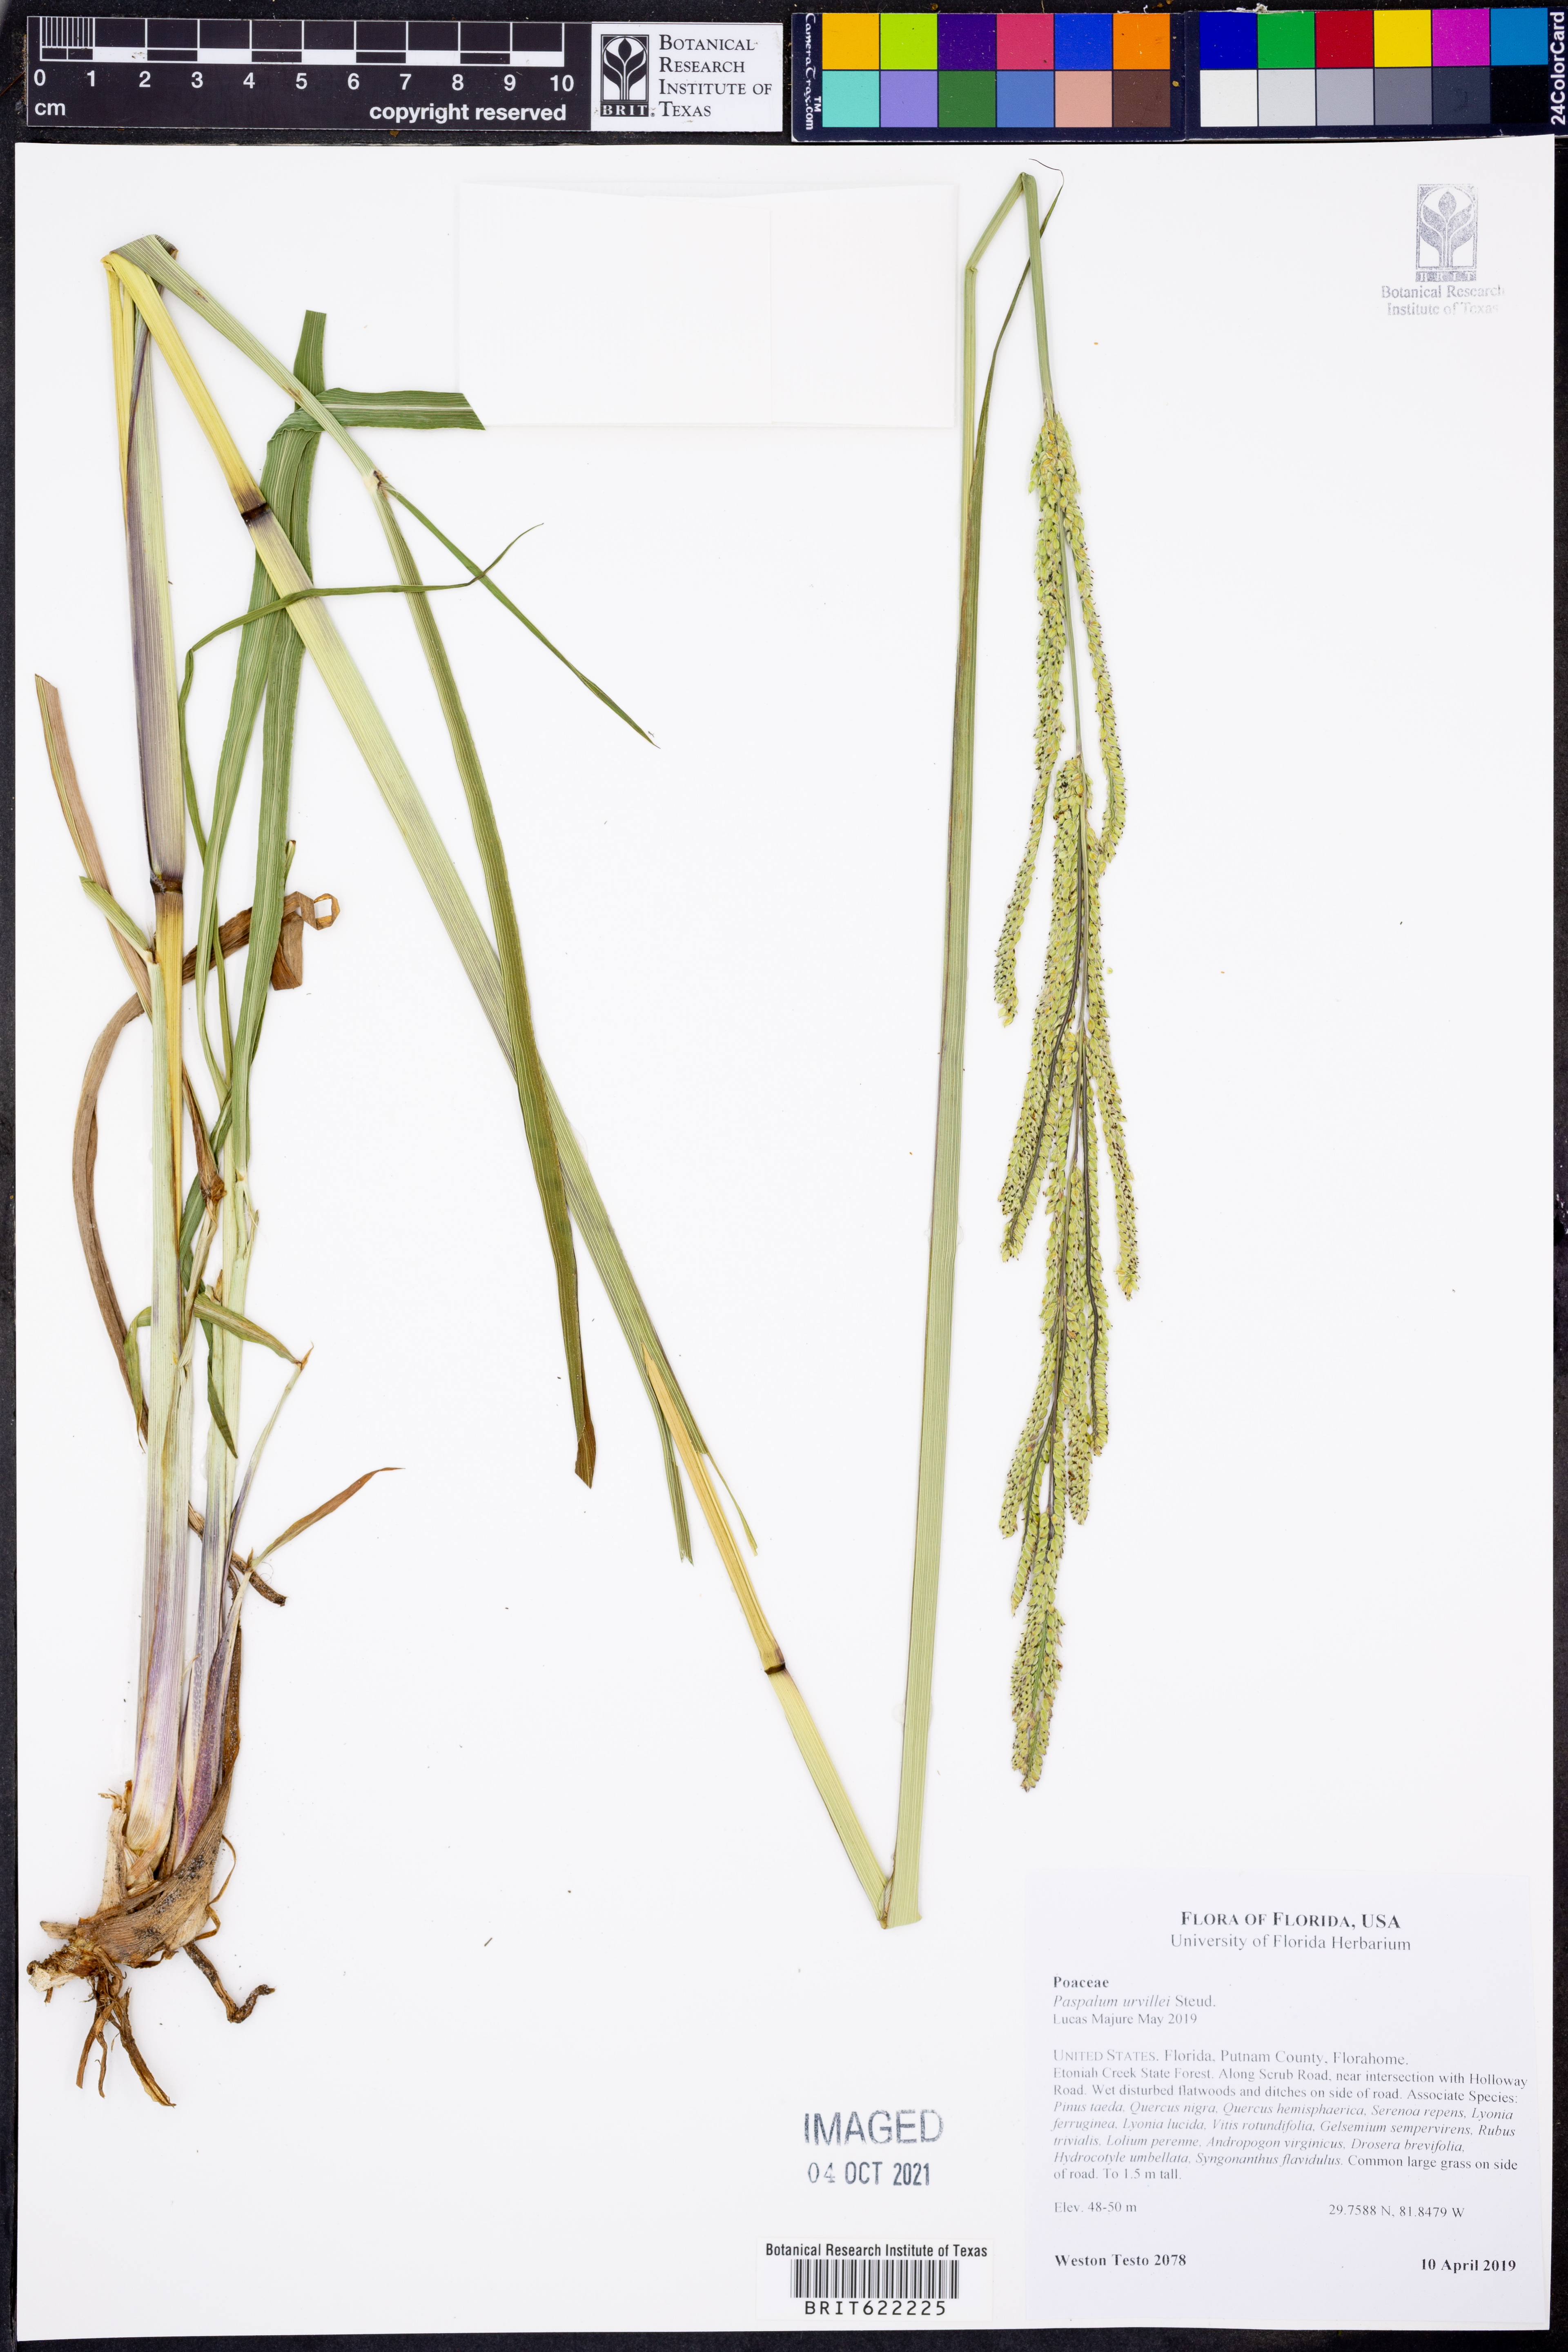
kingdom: Plantae
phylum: Tracheophyta
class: Liliopsida
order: Poales
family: Poaceae
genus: Paspalum
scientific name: Paspalum urvillei
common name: Vasey's grass
